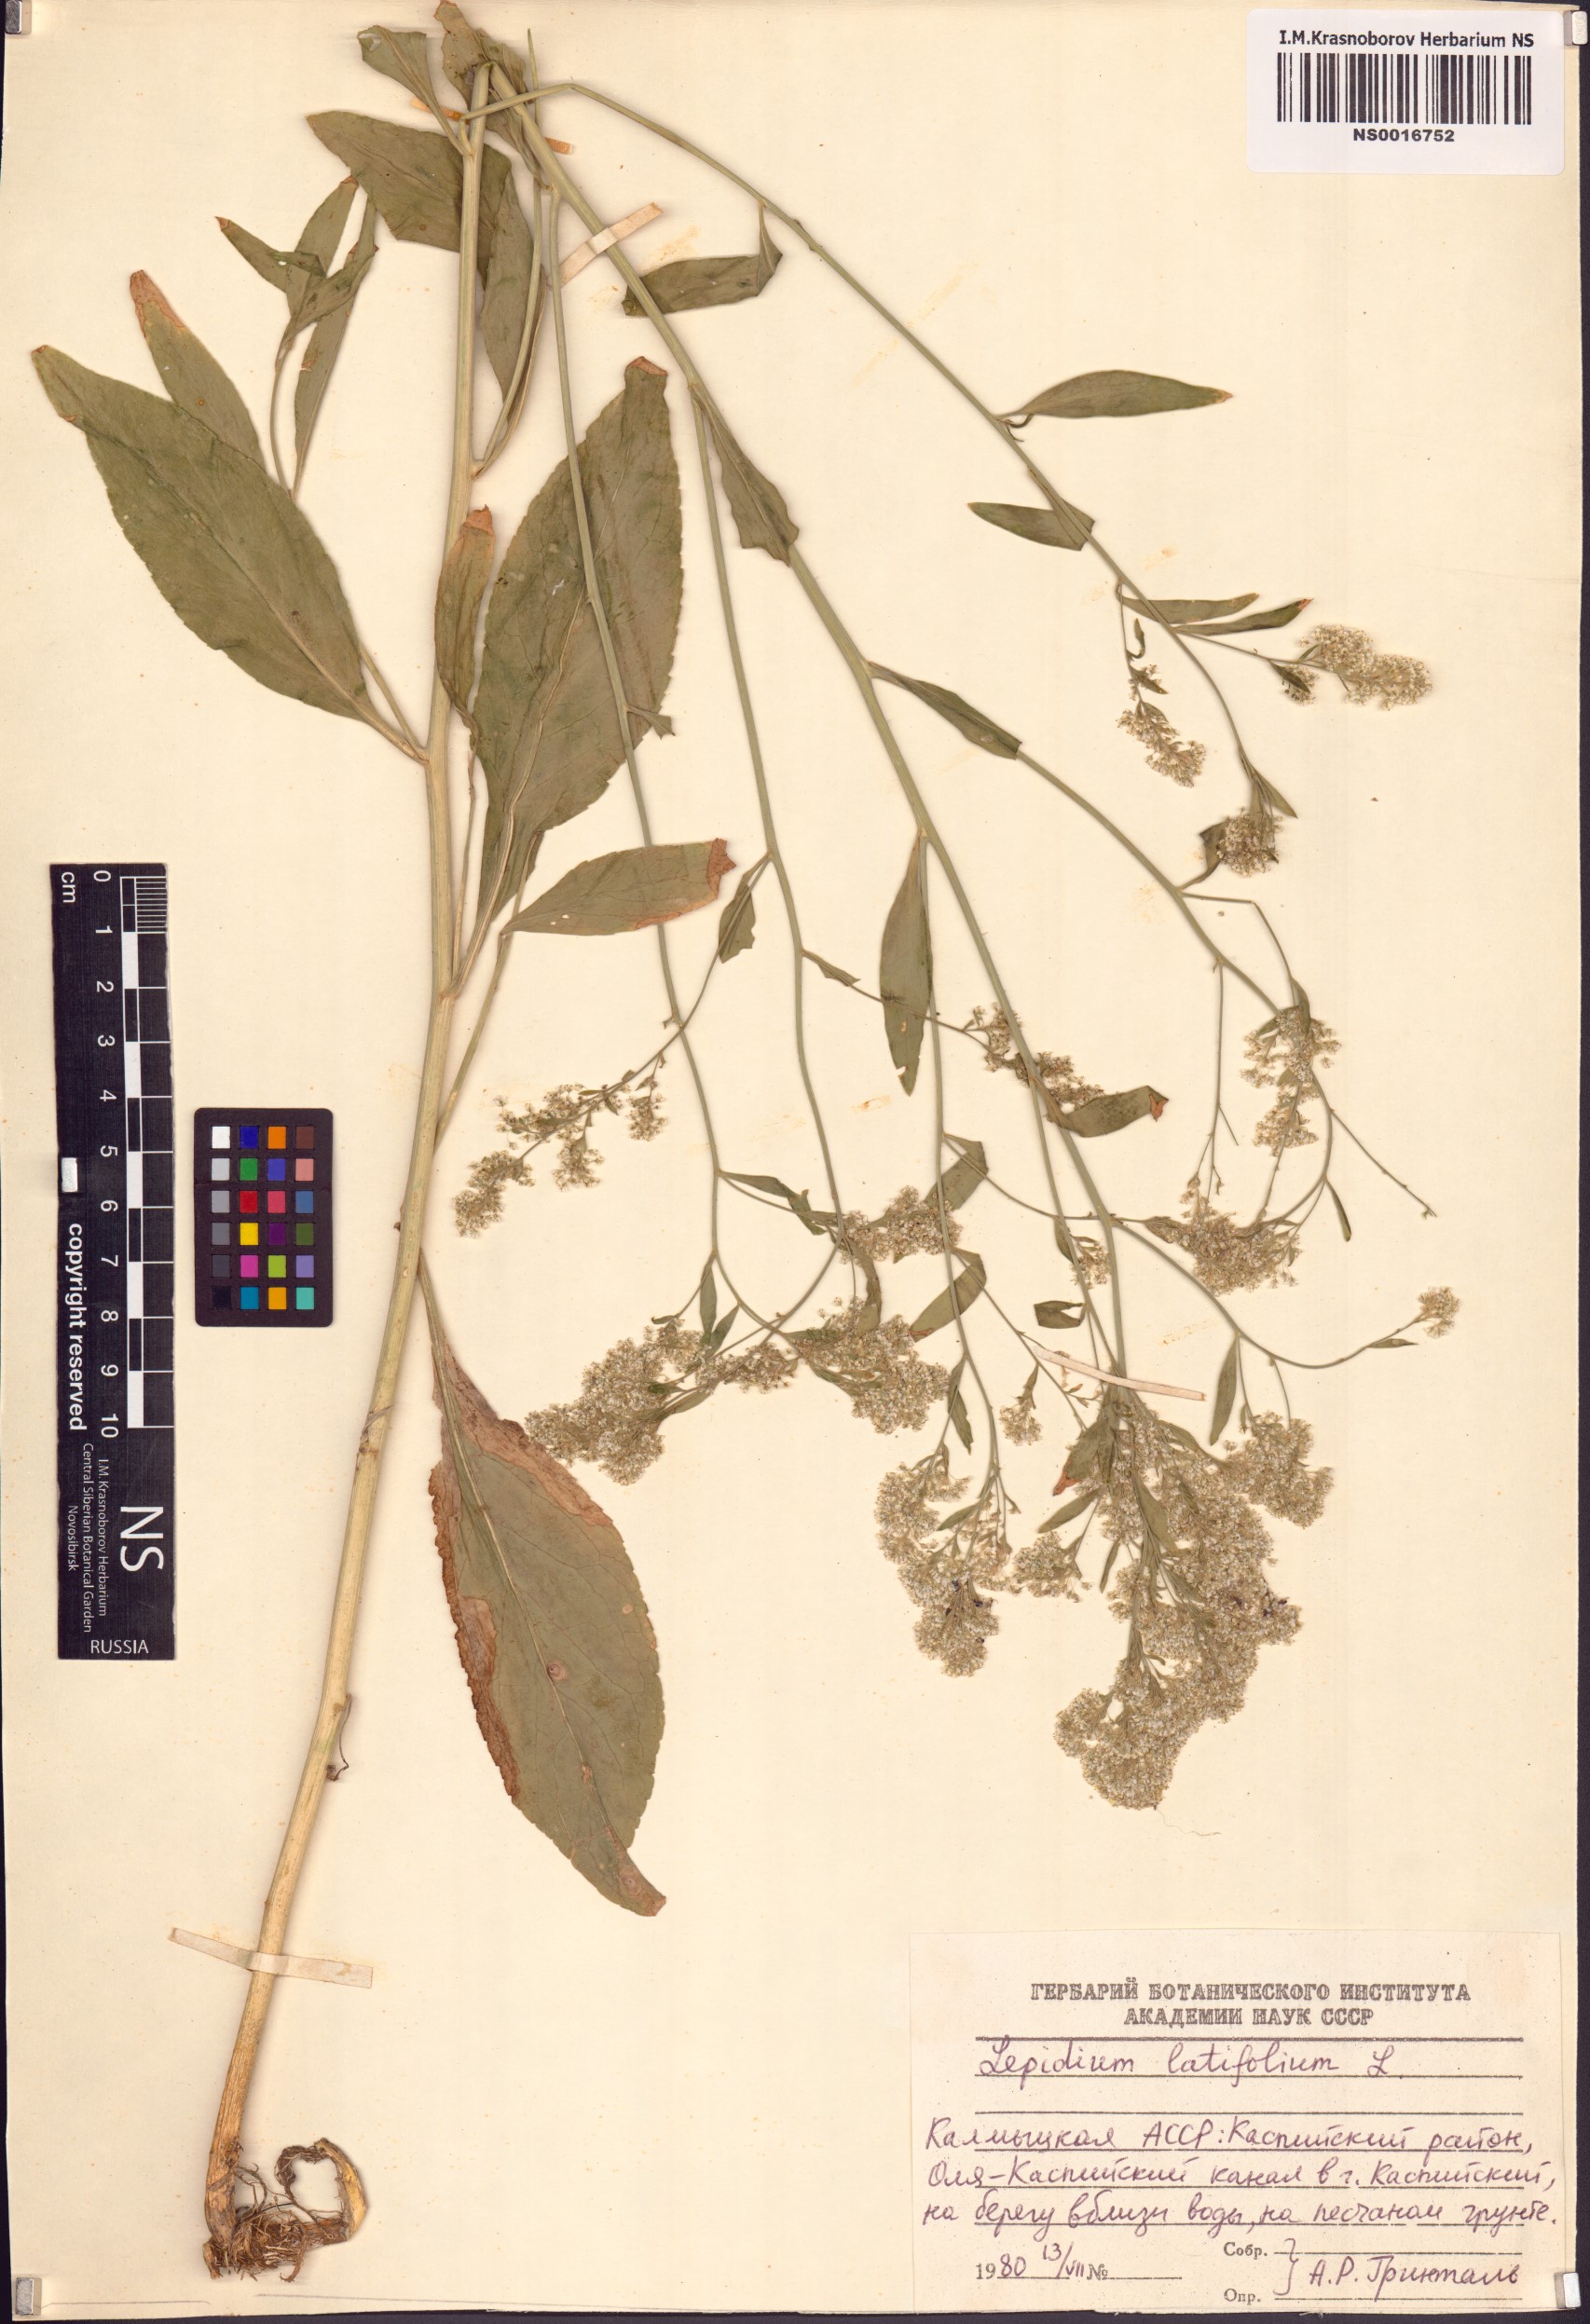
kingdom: Plantae
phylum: Tracheophyta
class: Magnoliopsida
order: Brassicales
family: Brassicaceae
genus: Lepidium
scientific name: Lepidium latifolium
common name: Dittander
